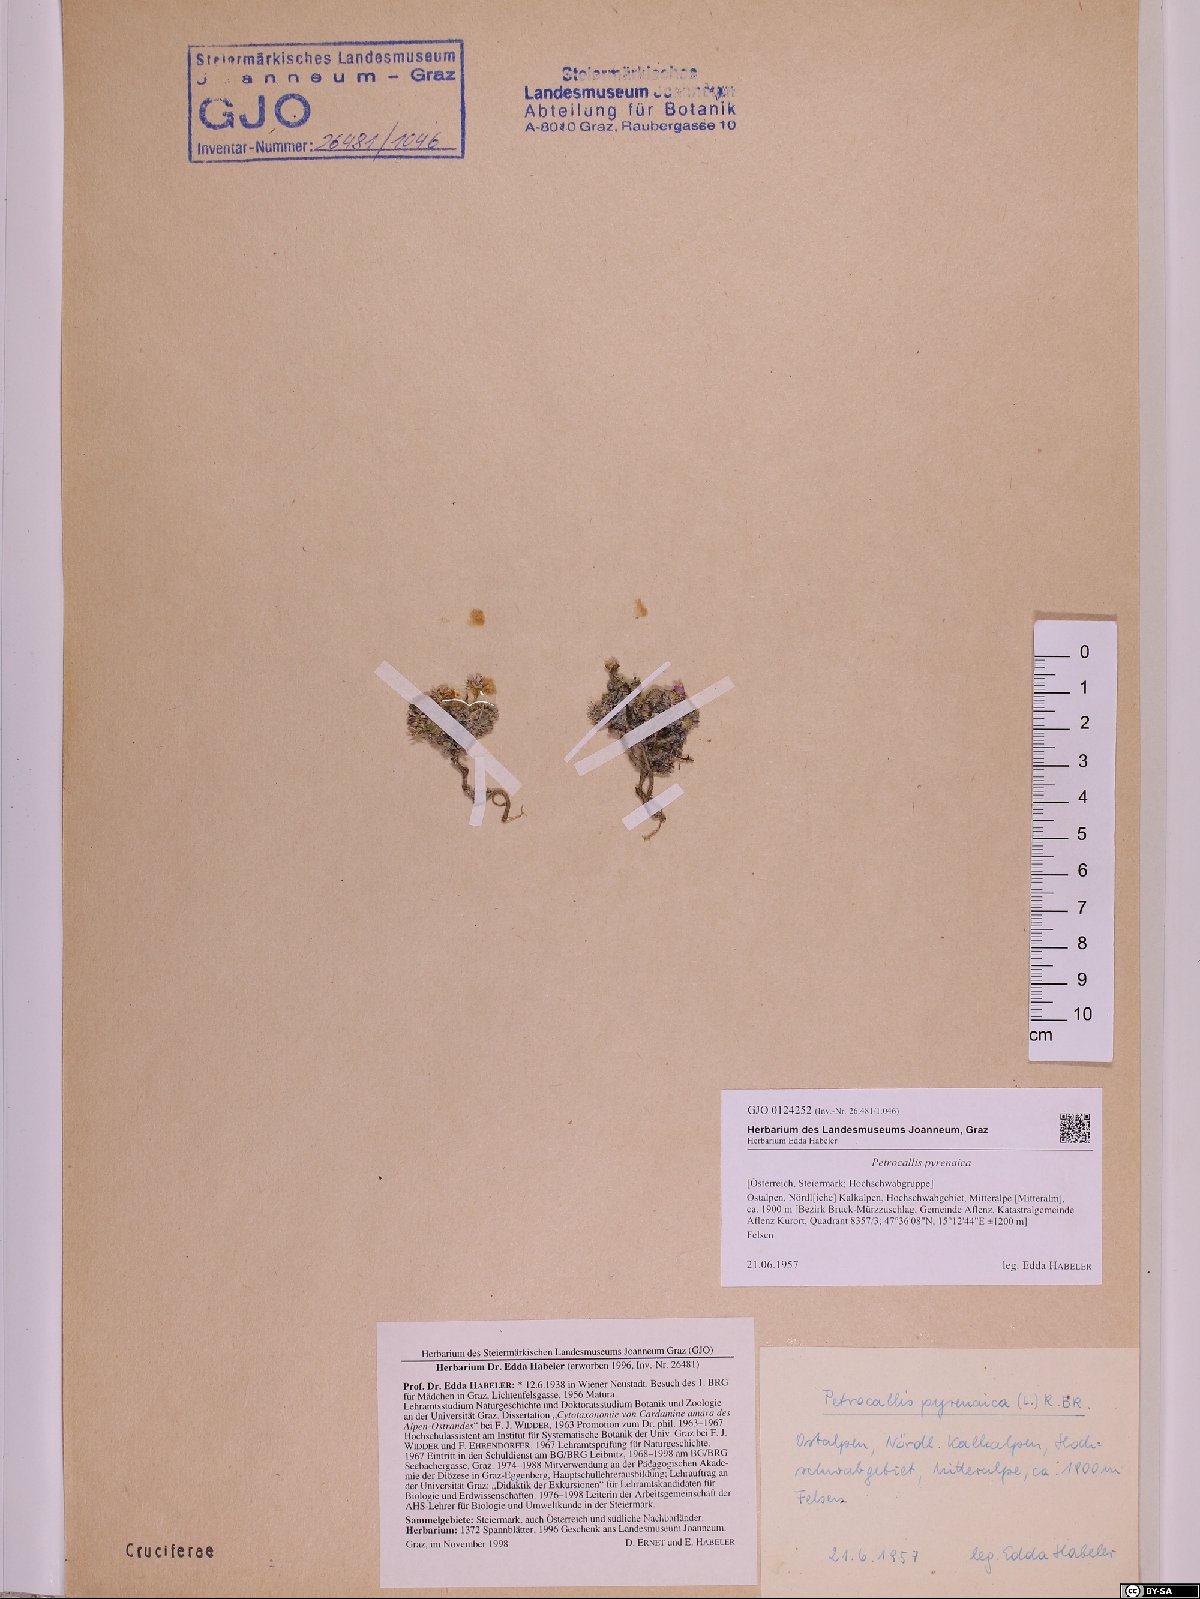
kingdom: Plantae
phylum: Tracheophyta
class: Magnoliopsida
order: Brassicales
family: Brassicaceae
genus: Petrocallis
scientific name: Petrocallis pyrenaica
